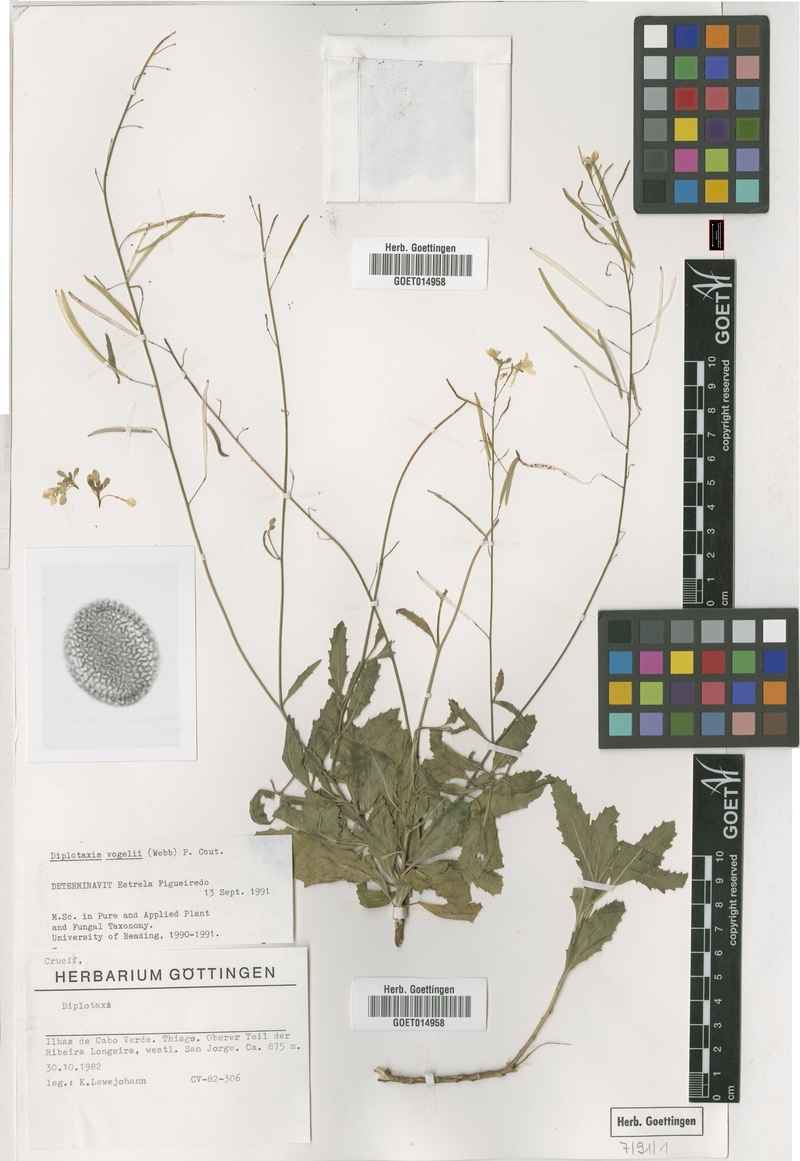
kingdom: Plantae
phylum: Tracheophyta
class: Magnoliopsida
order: Brassicales
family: Brassicaceae
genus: Diplotaxis
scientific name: Diplotaxis vogelii
